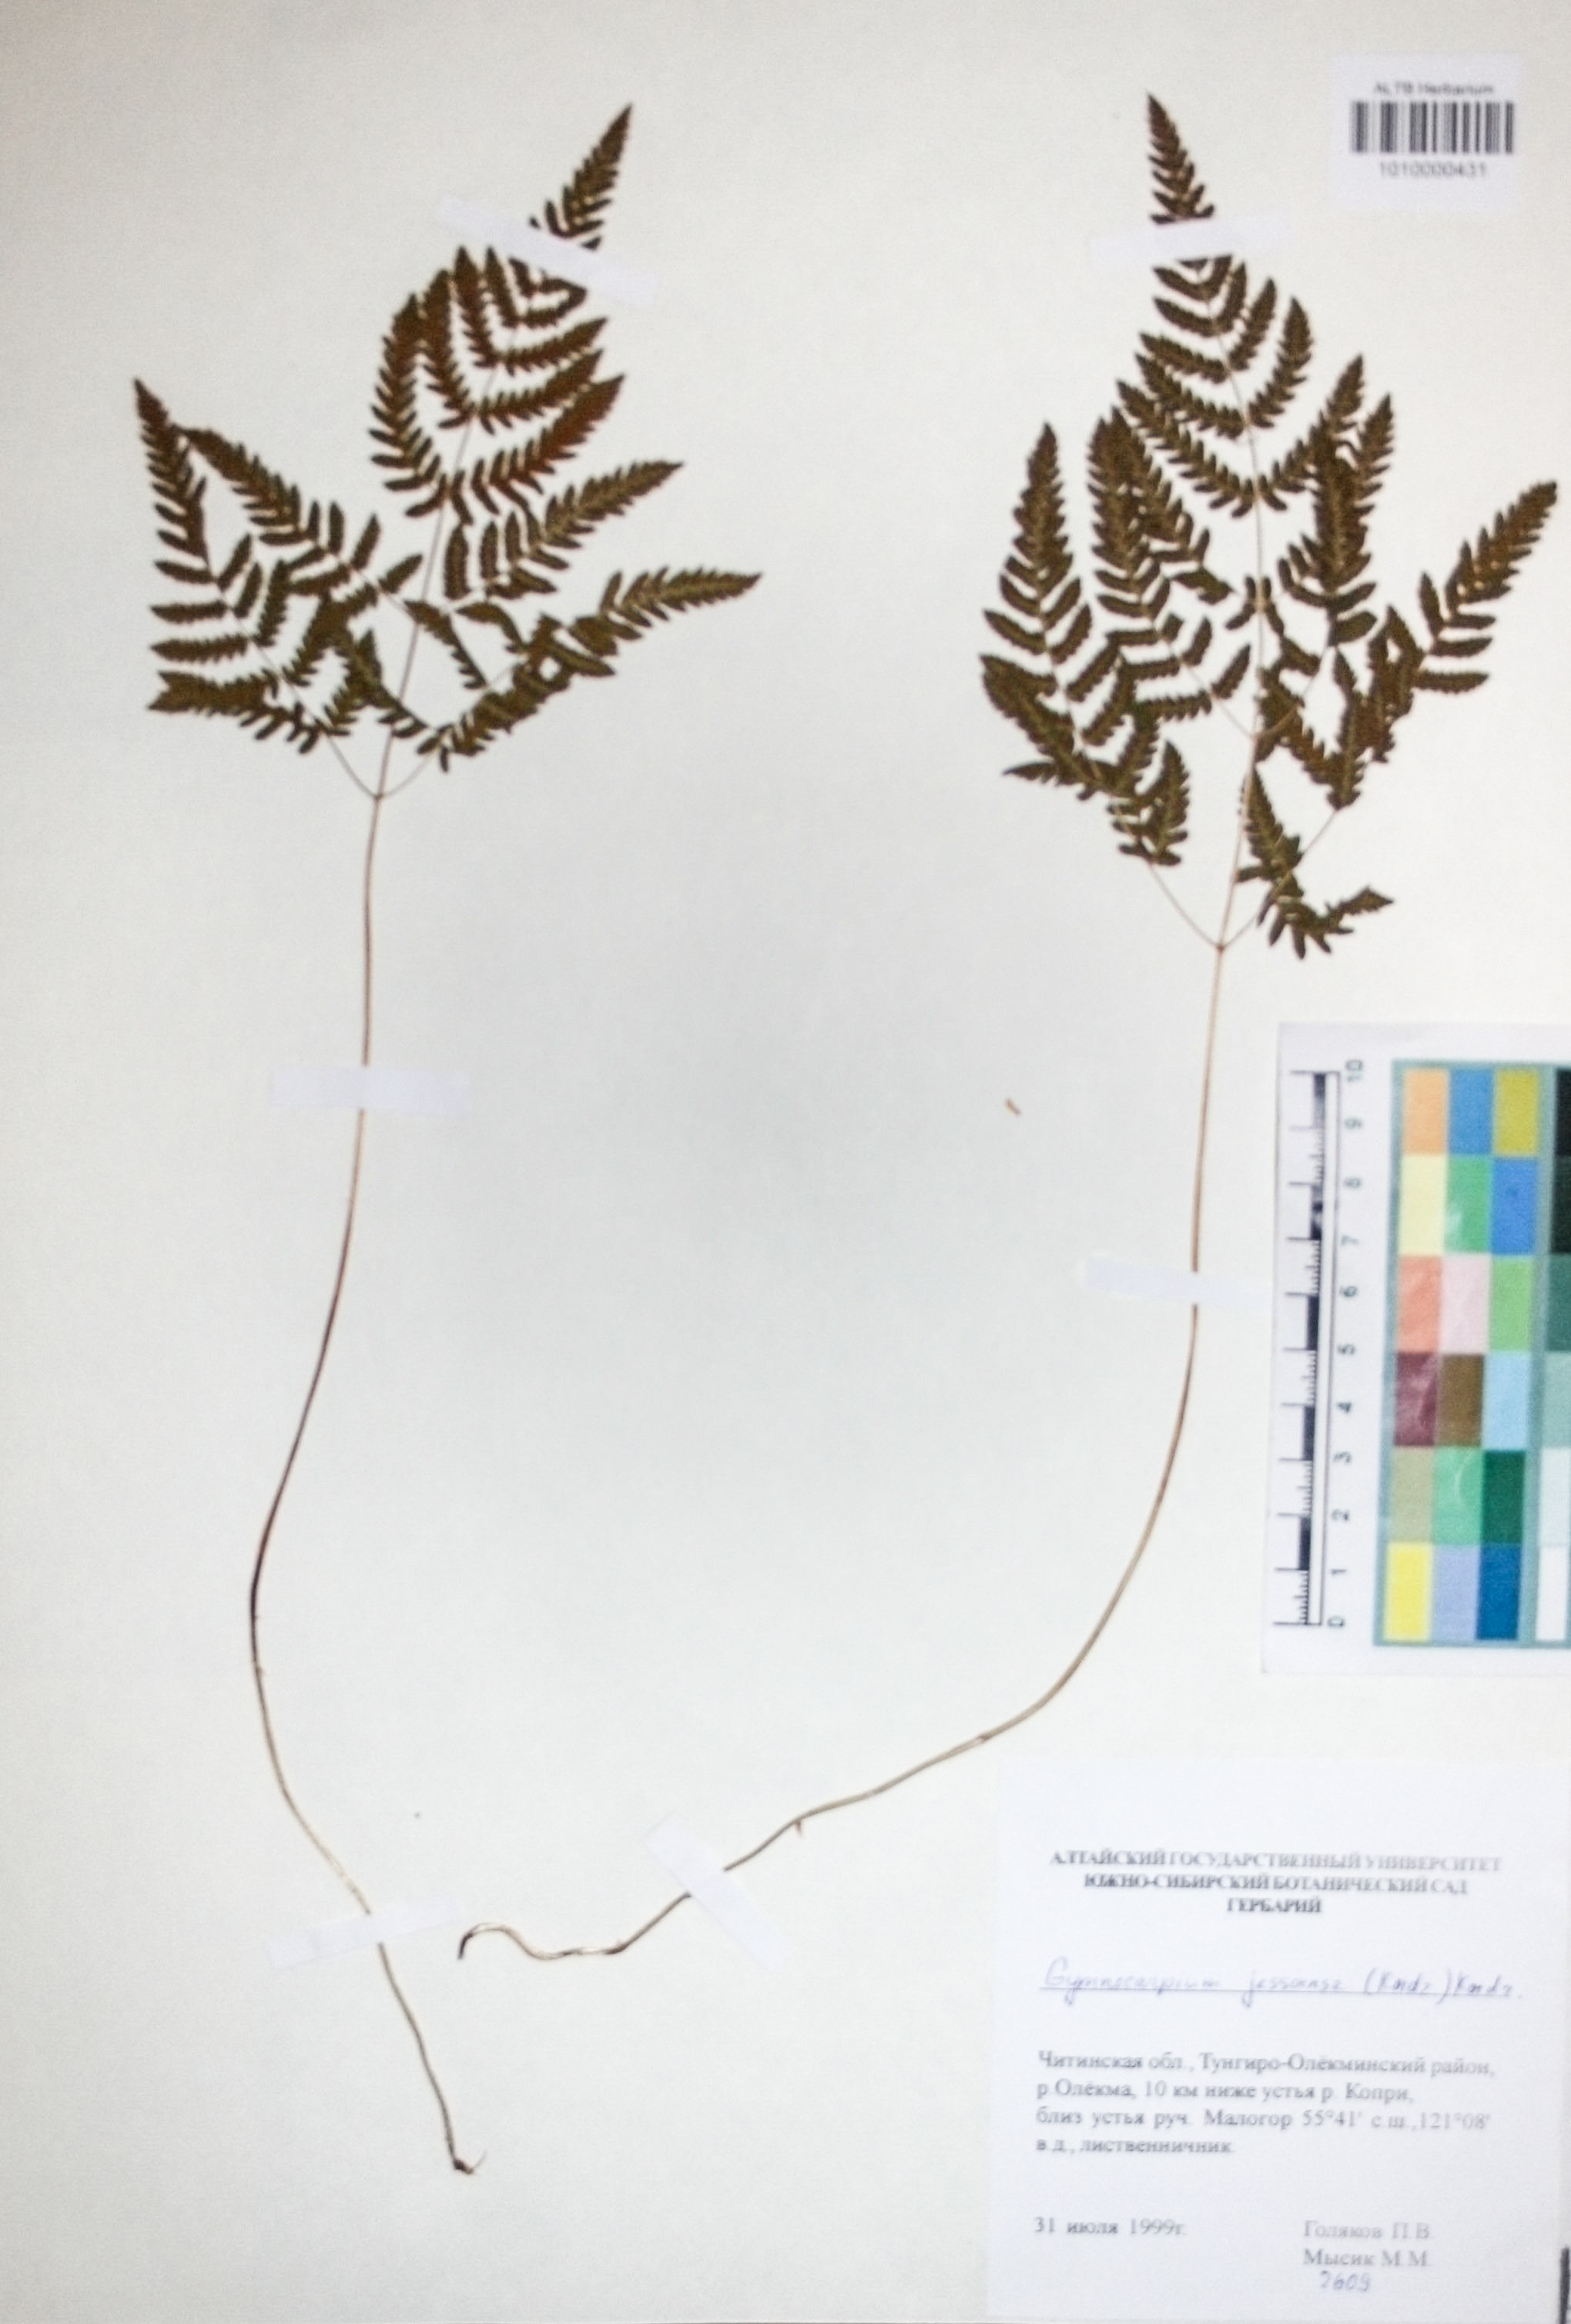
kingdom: Plantae
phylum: Tracheophyta
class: Polypodiopsida
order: Polypodiales
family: Cystopteridaceae
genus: Gymnocarpium
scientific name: Gymnocarpium jessoense
